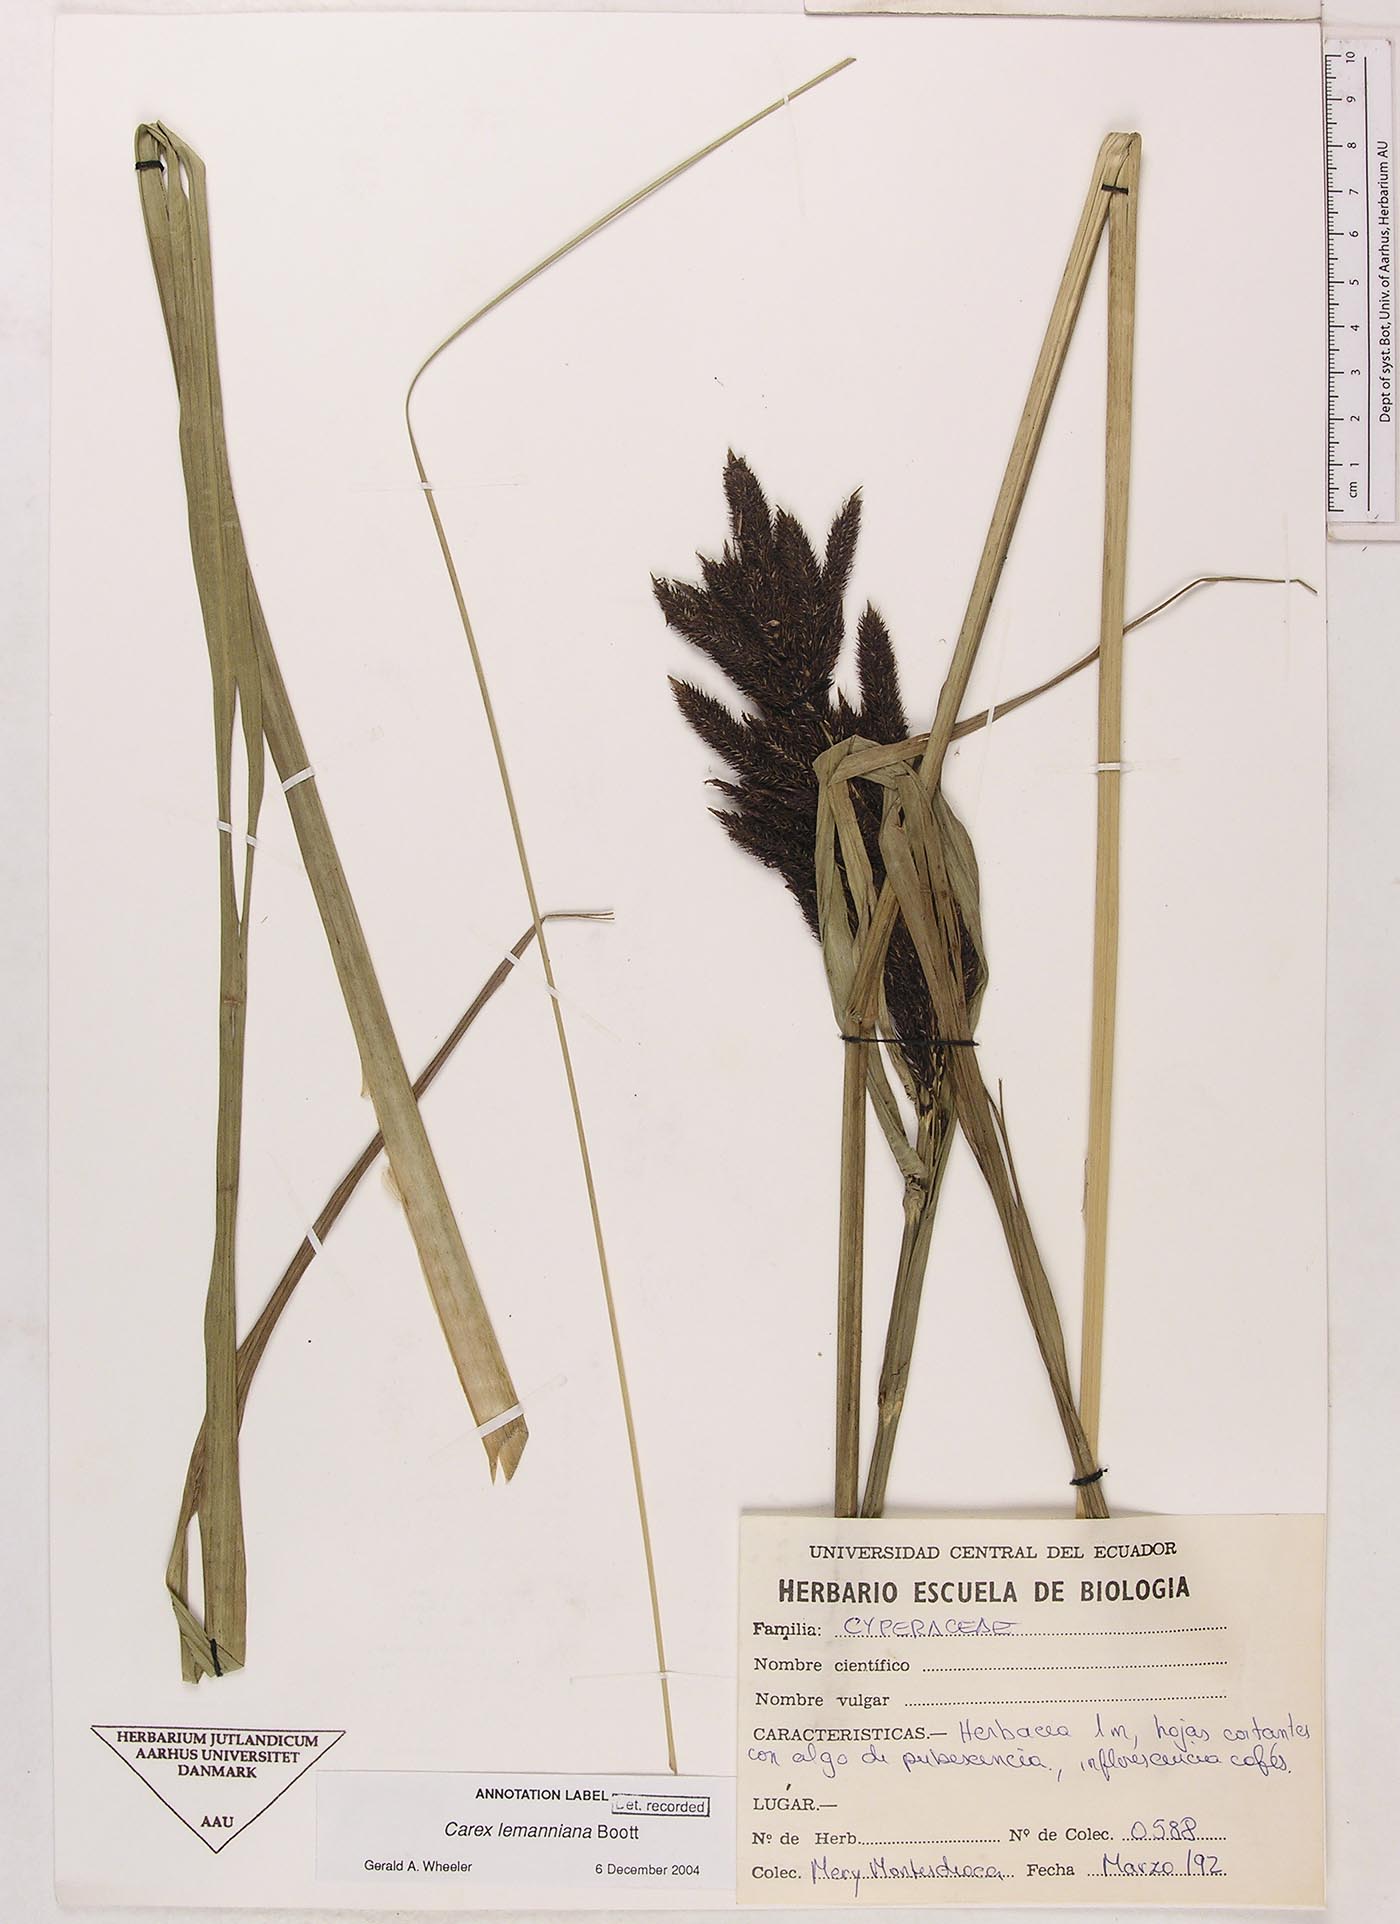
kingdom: Plantae
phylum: Tracheophyta
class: Liliopsida
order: Poales
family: Cyperaceae
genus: Carex
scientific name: Carex lemanniana
